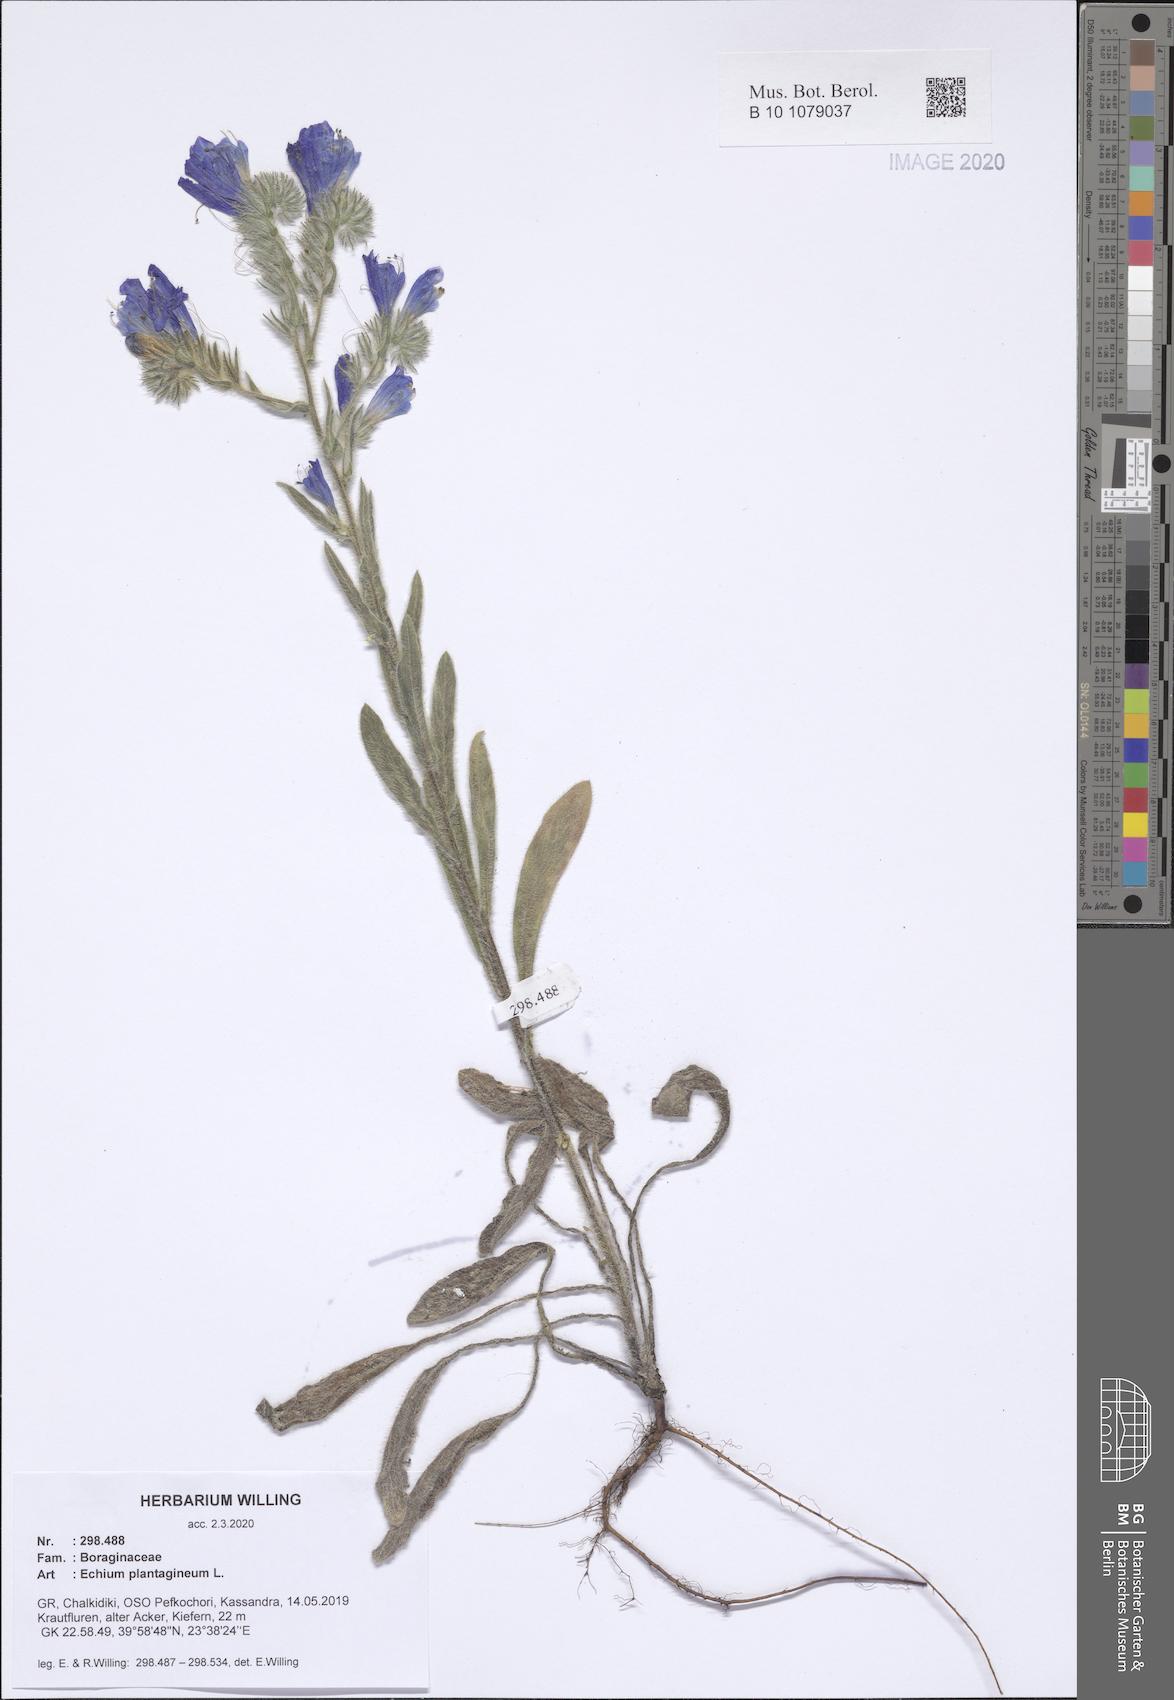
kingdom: Plantae
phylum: Tracheophyta
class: Magnoliopsida
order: Boraginales
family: Boraginaceae
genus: Echium
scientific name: Echium plantagineum
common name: Purple viper's-bugloss
